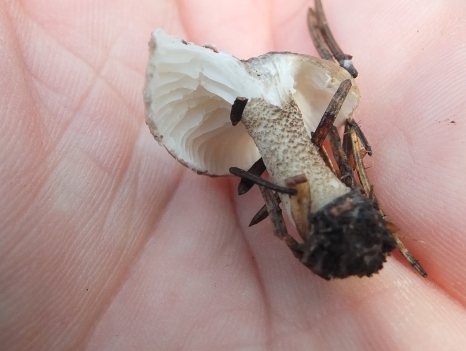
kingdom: Fungi
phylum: Basidiomycota
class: Agaricomycetes
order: Agaricales
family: Hygrophoraceae
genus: Hygrophorus
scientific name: Hygrophorus pustulatus
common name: mørkprikket sneglehat
